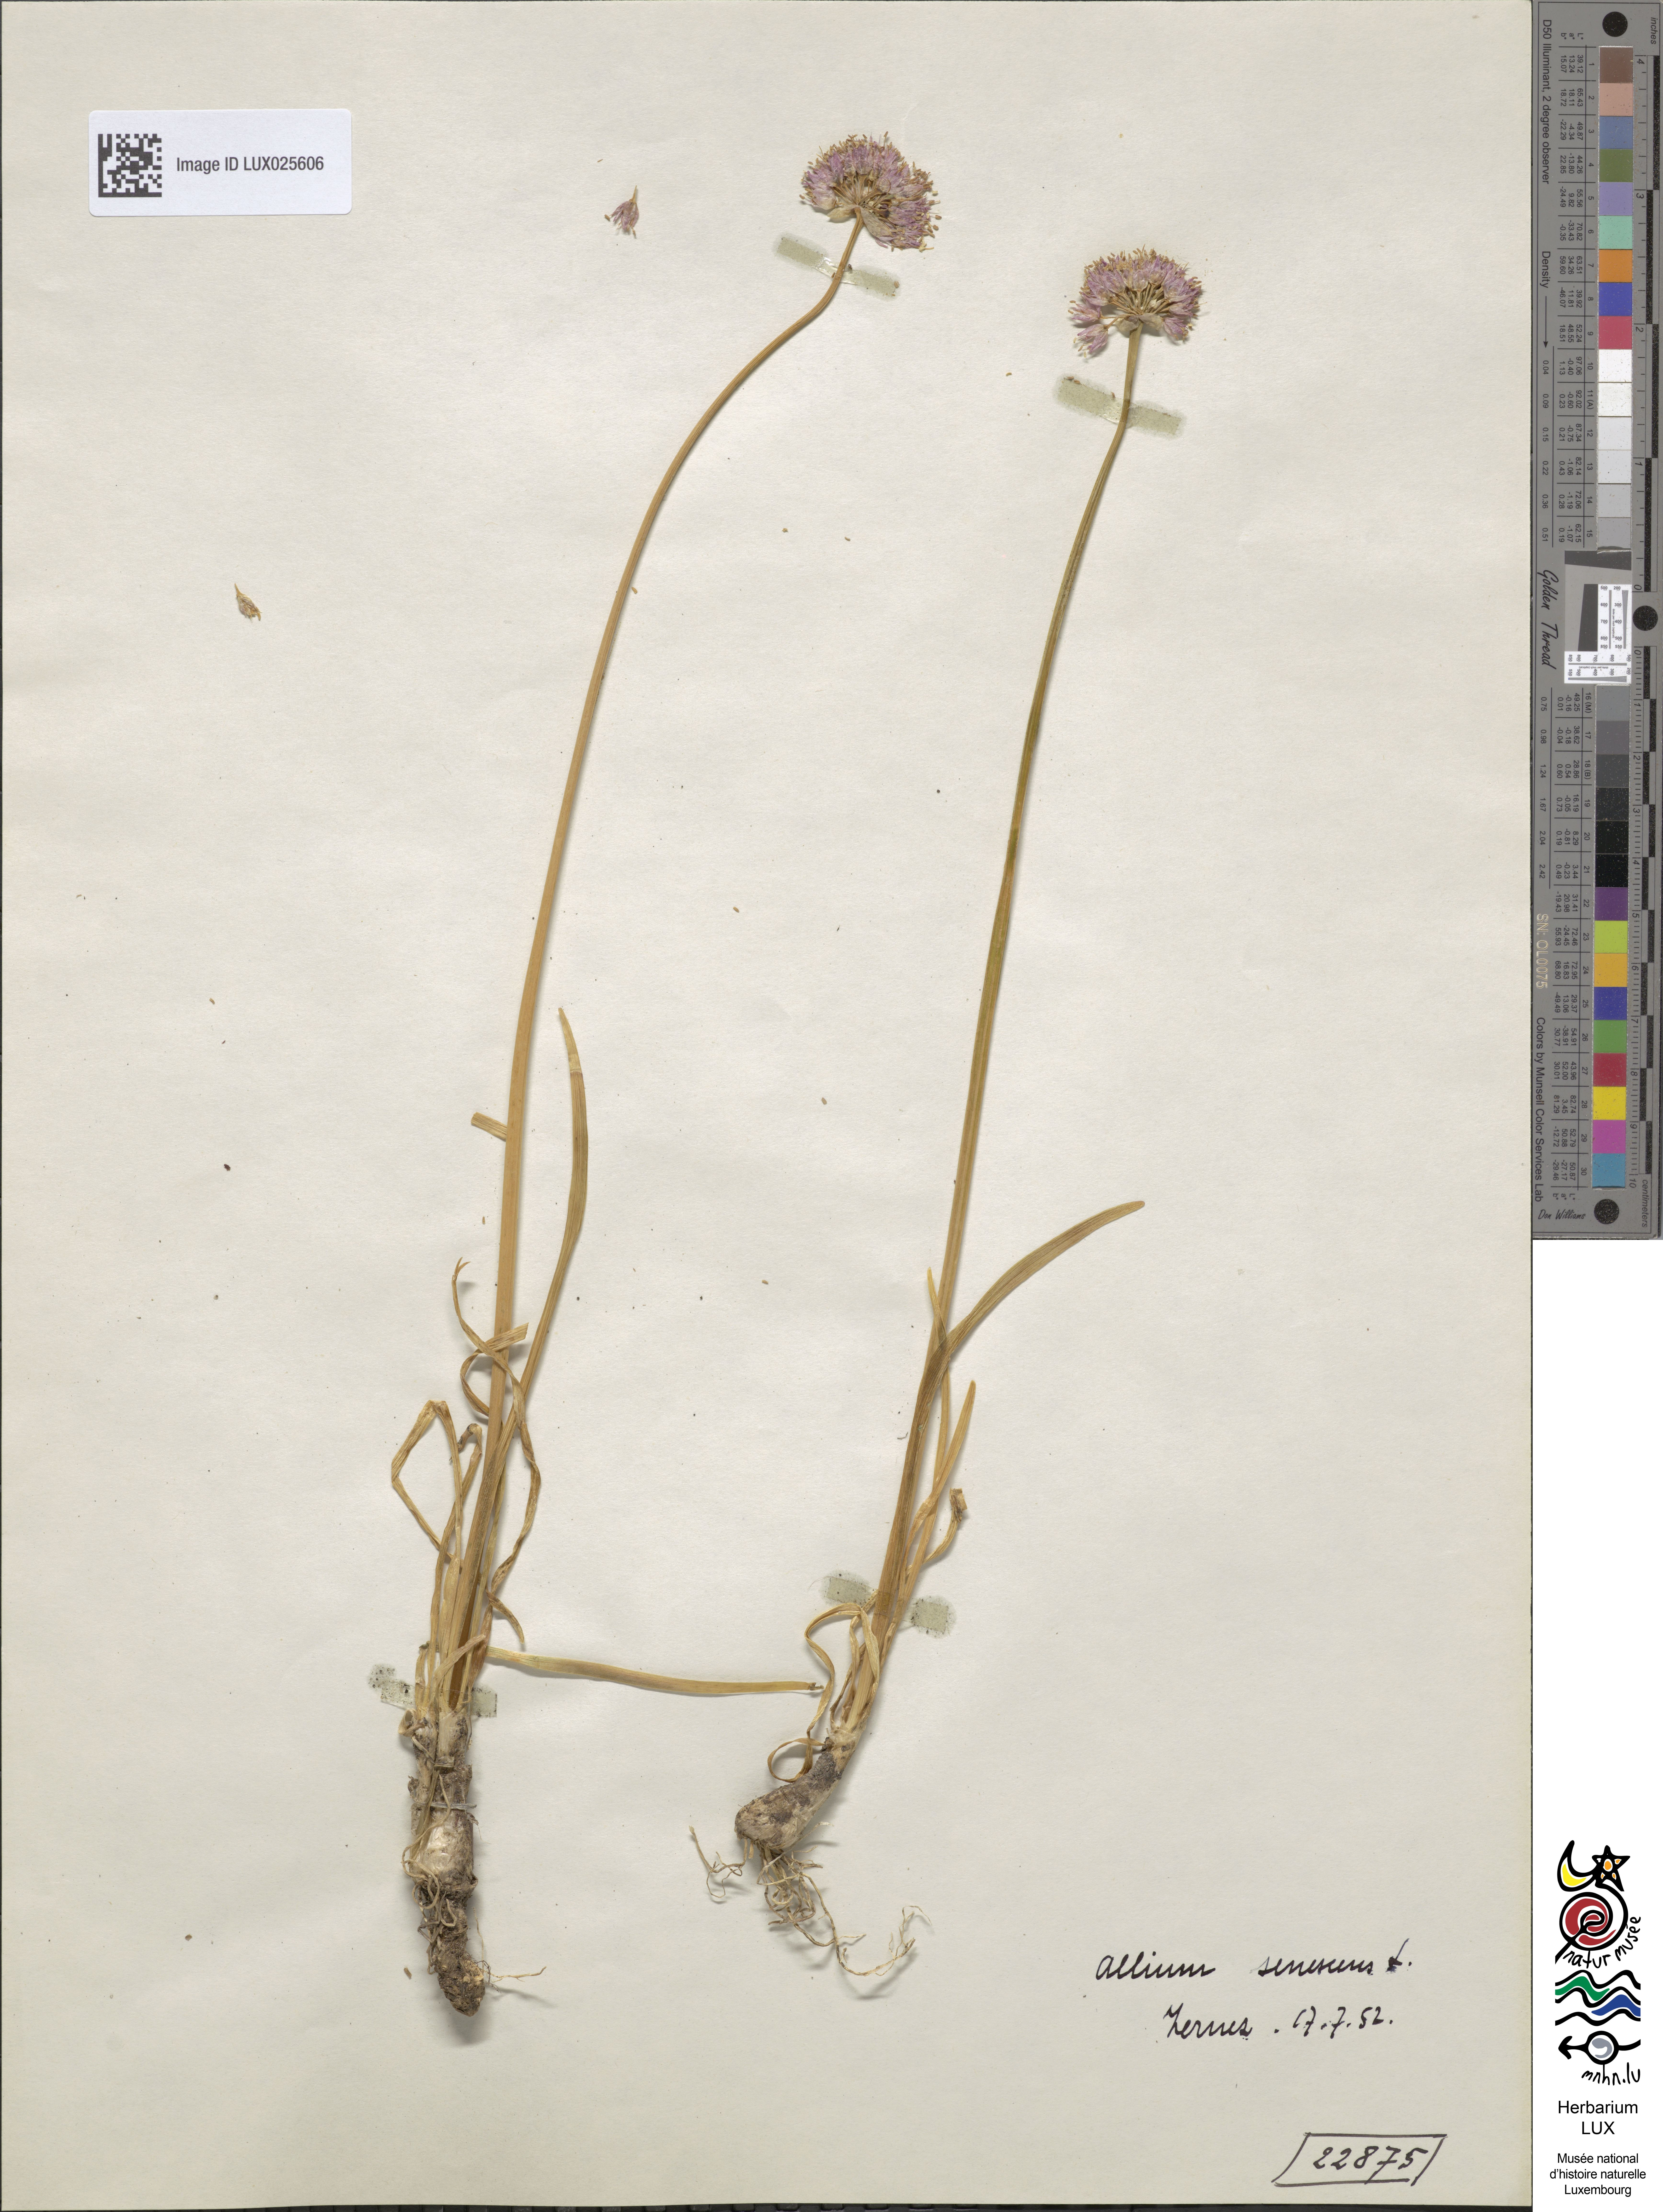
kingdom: Plantae
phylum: Tracheophyta
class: Liliopsida
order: Asparagales
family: Amaryllidaceae
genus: Allium
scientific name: Allium senescens
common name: German garlic
